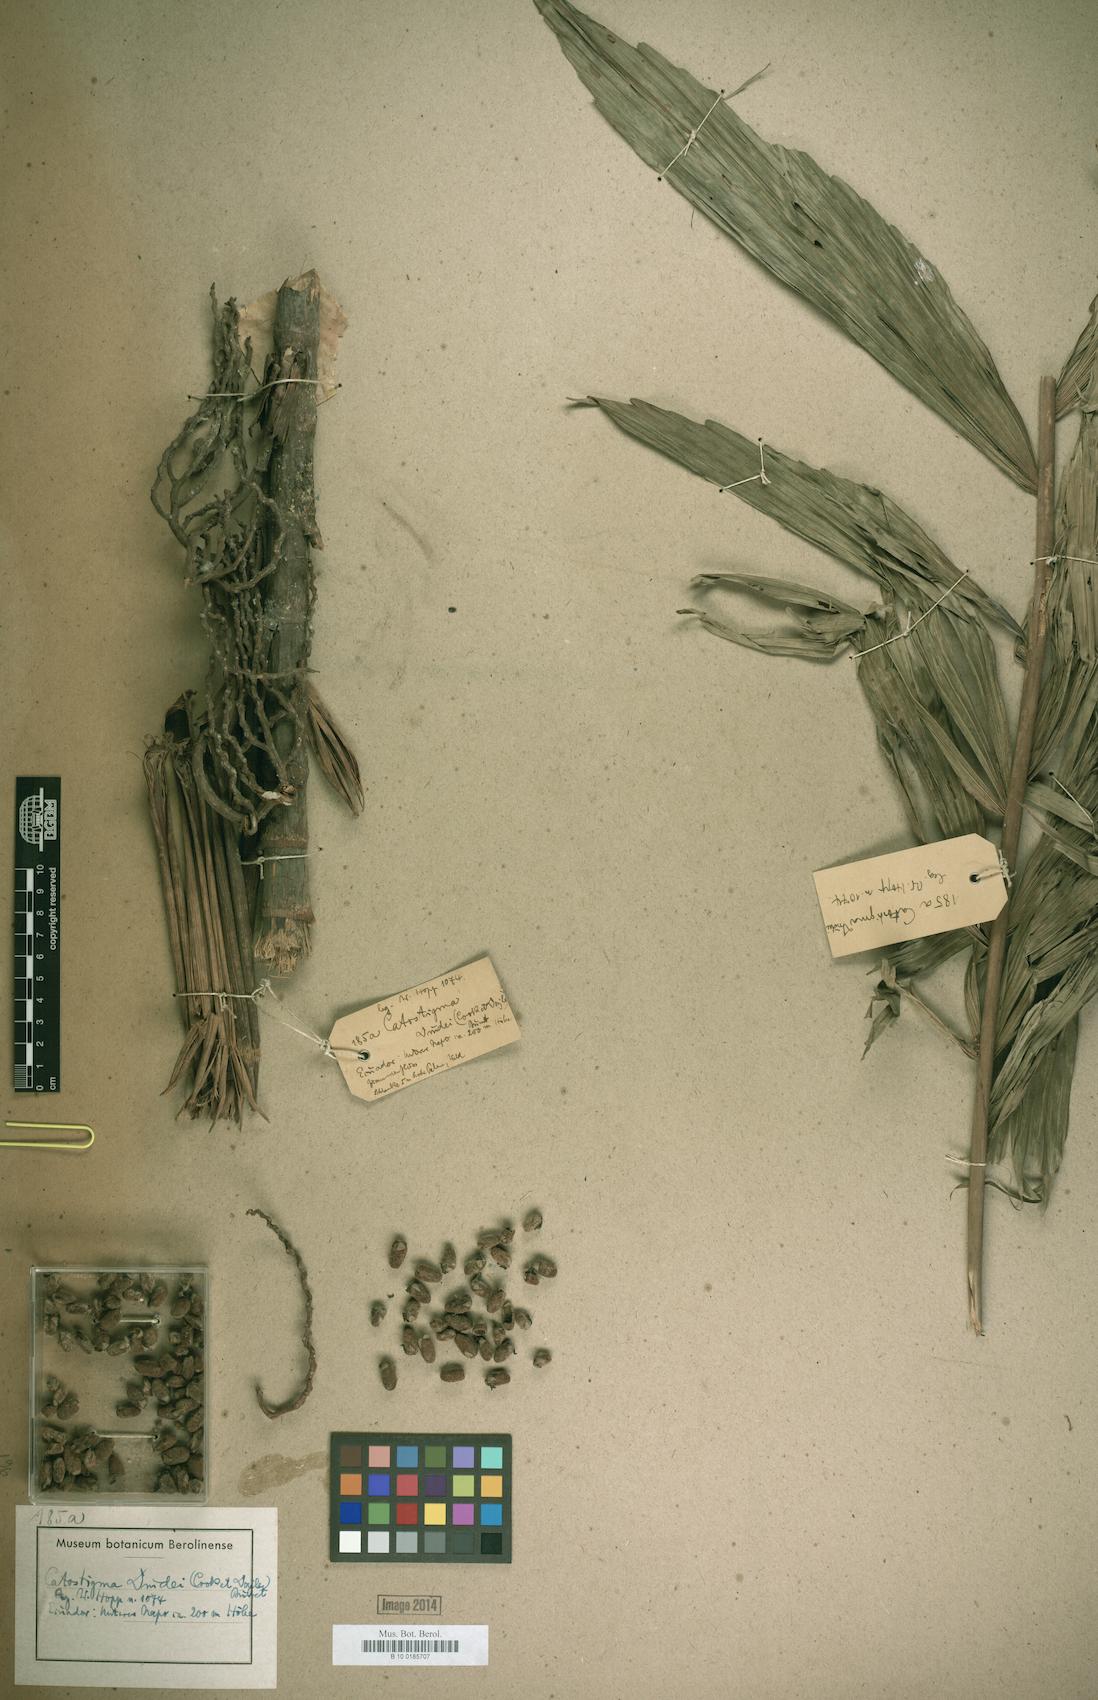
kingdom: Plantae
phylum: Tracheophyta
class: Liliopsida
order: Arecales
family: Arecaceae
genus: Wettinia
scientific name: Wettinia drudei
